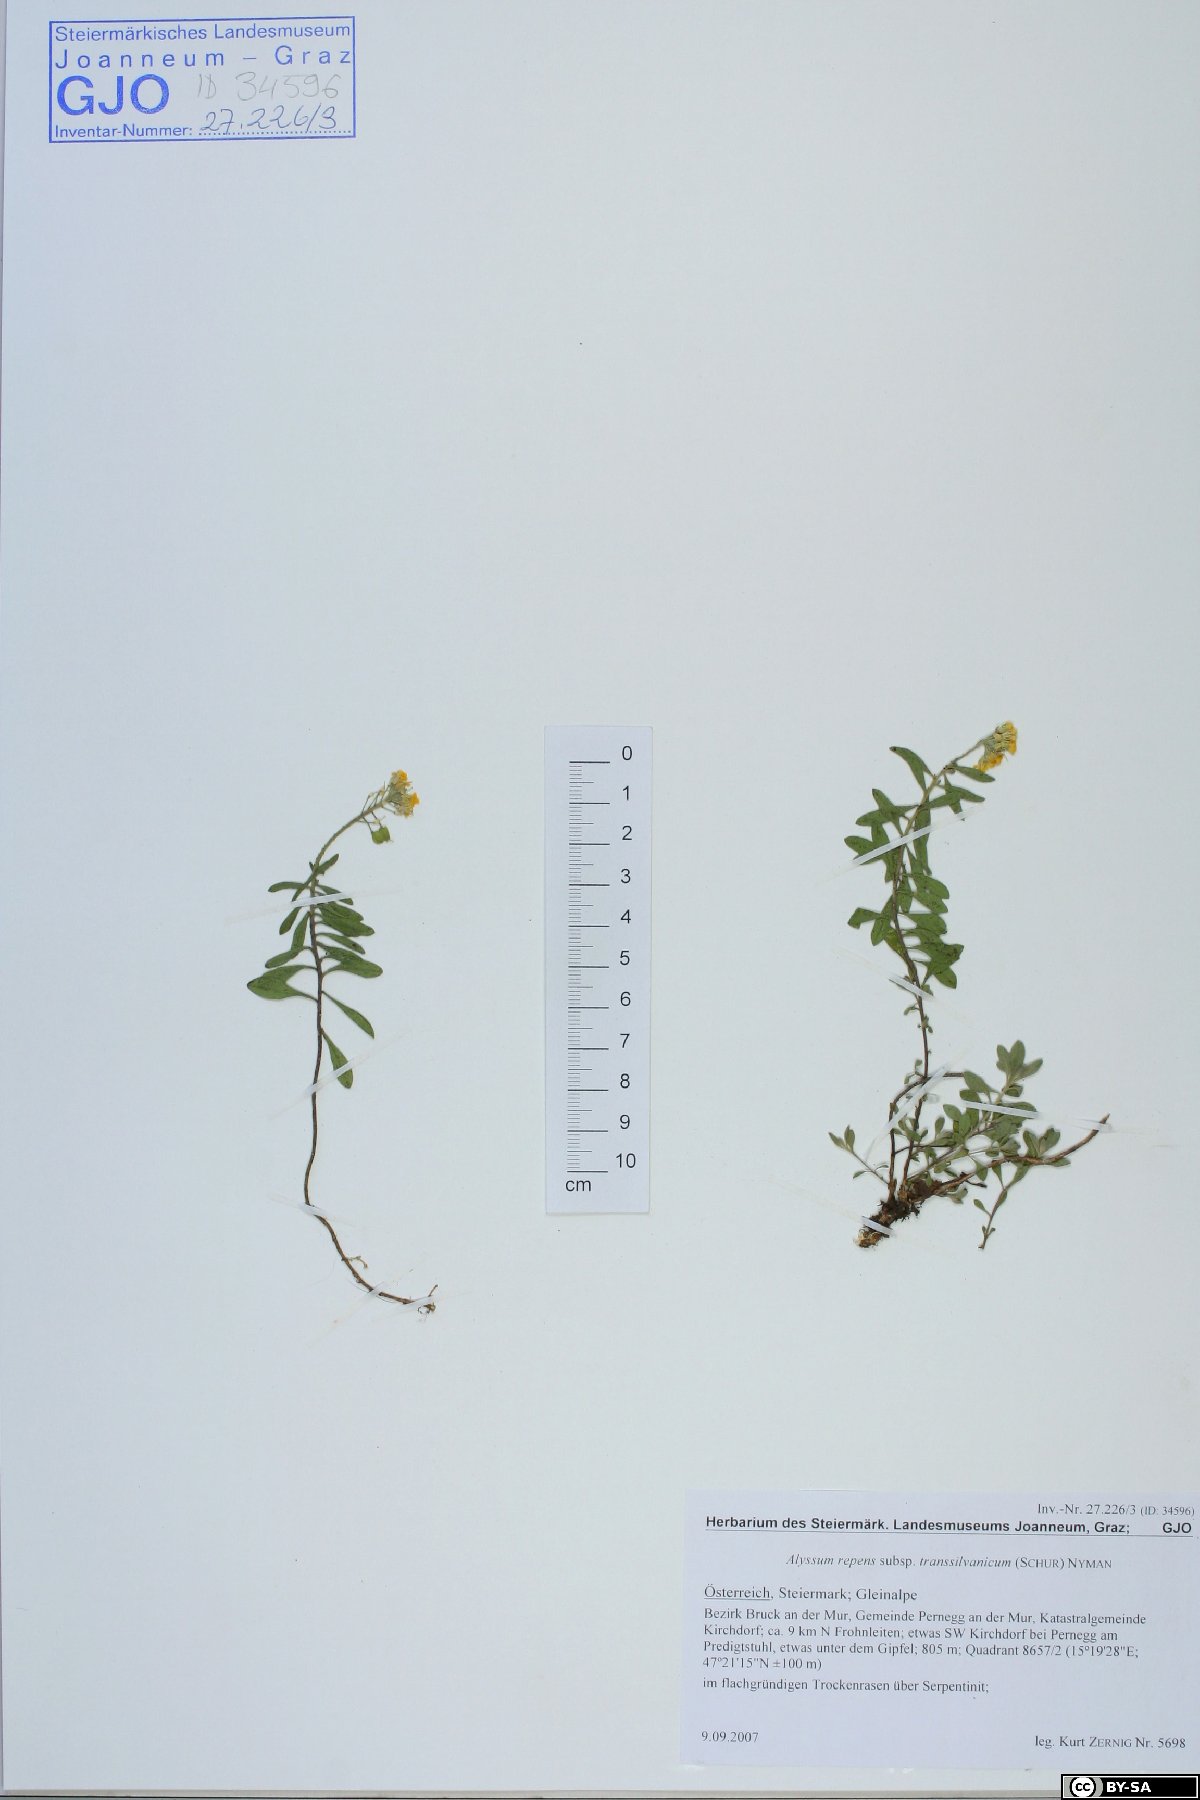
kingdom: Plantae
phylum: Tracheophyta
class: Magnoliopsida
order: Brassicales
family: Brassicaceae
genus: Alyssum
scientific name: Alyssum repens
